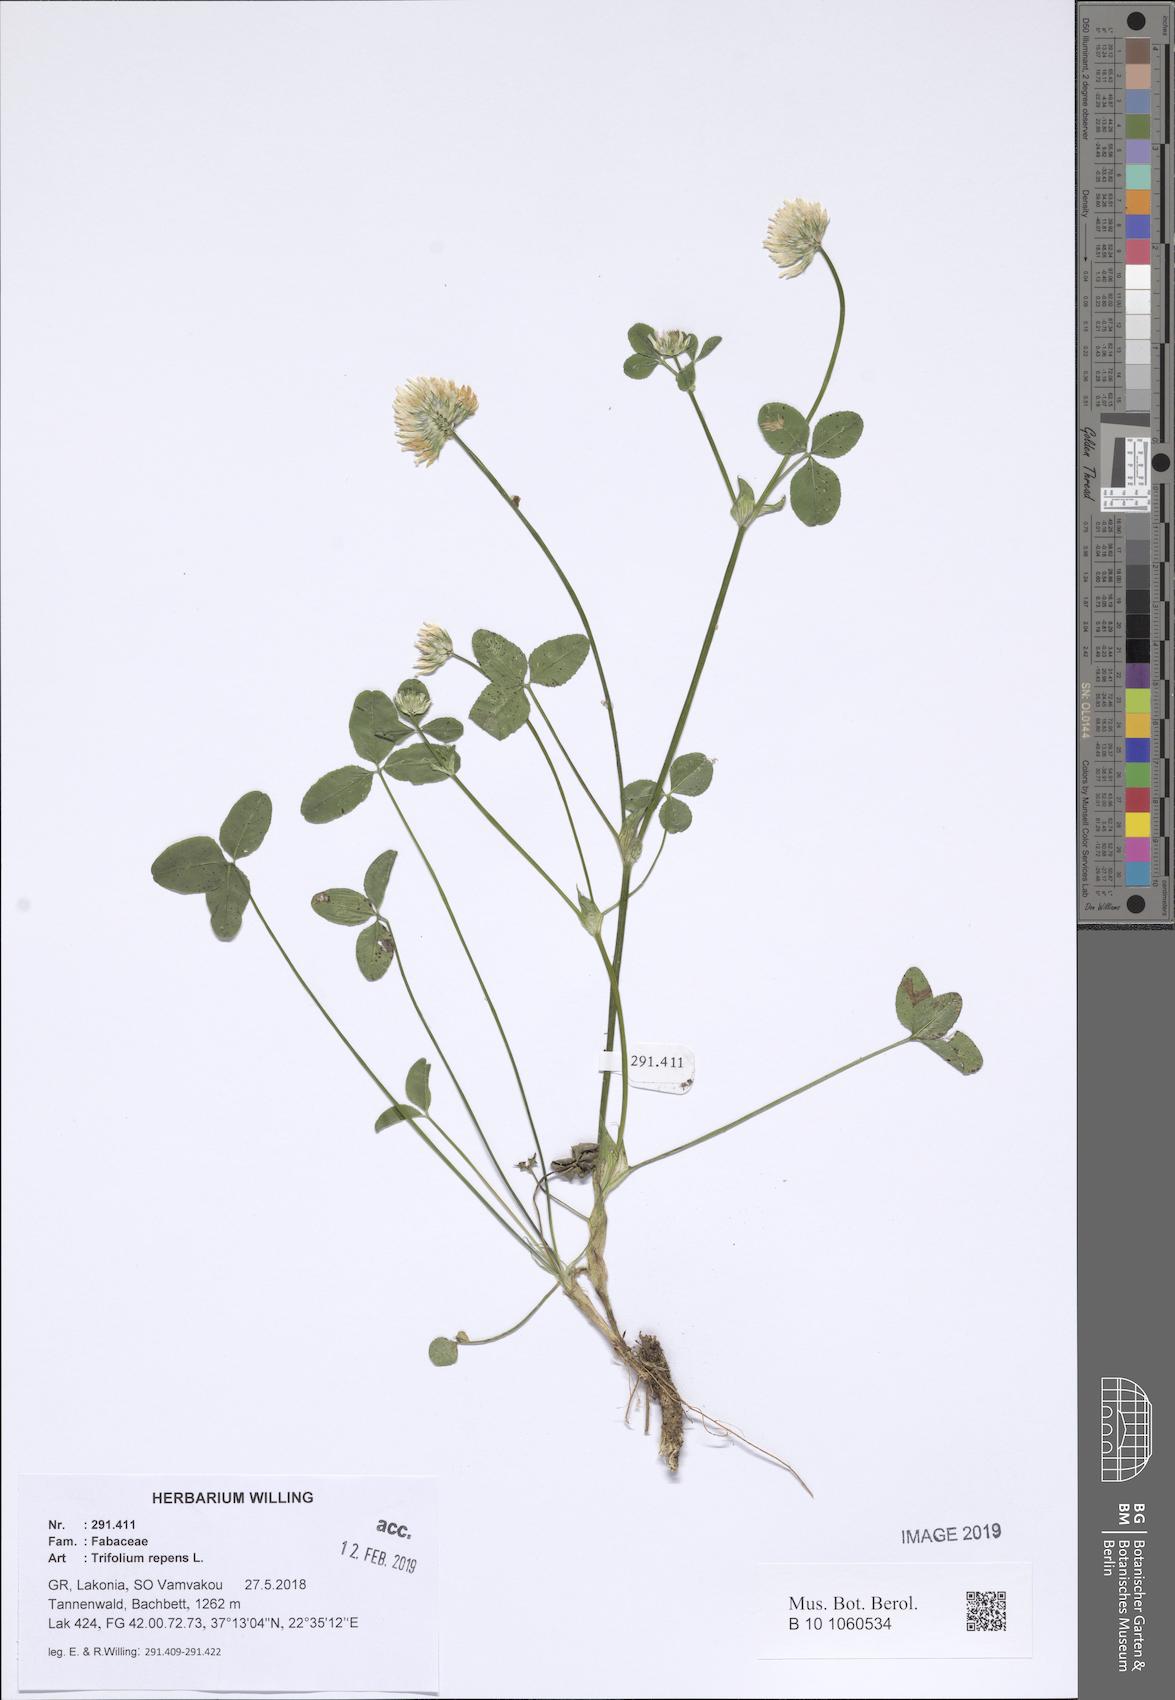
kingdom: Plantae
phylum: Tracheophyta
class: Magnoliopsida
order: Fabales
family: Fabaceae
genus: Trifolium
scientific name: Trifolium repens
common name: White clover
